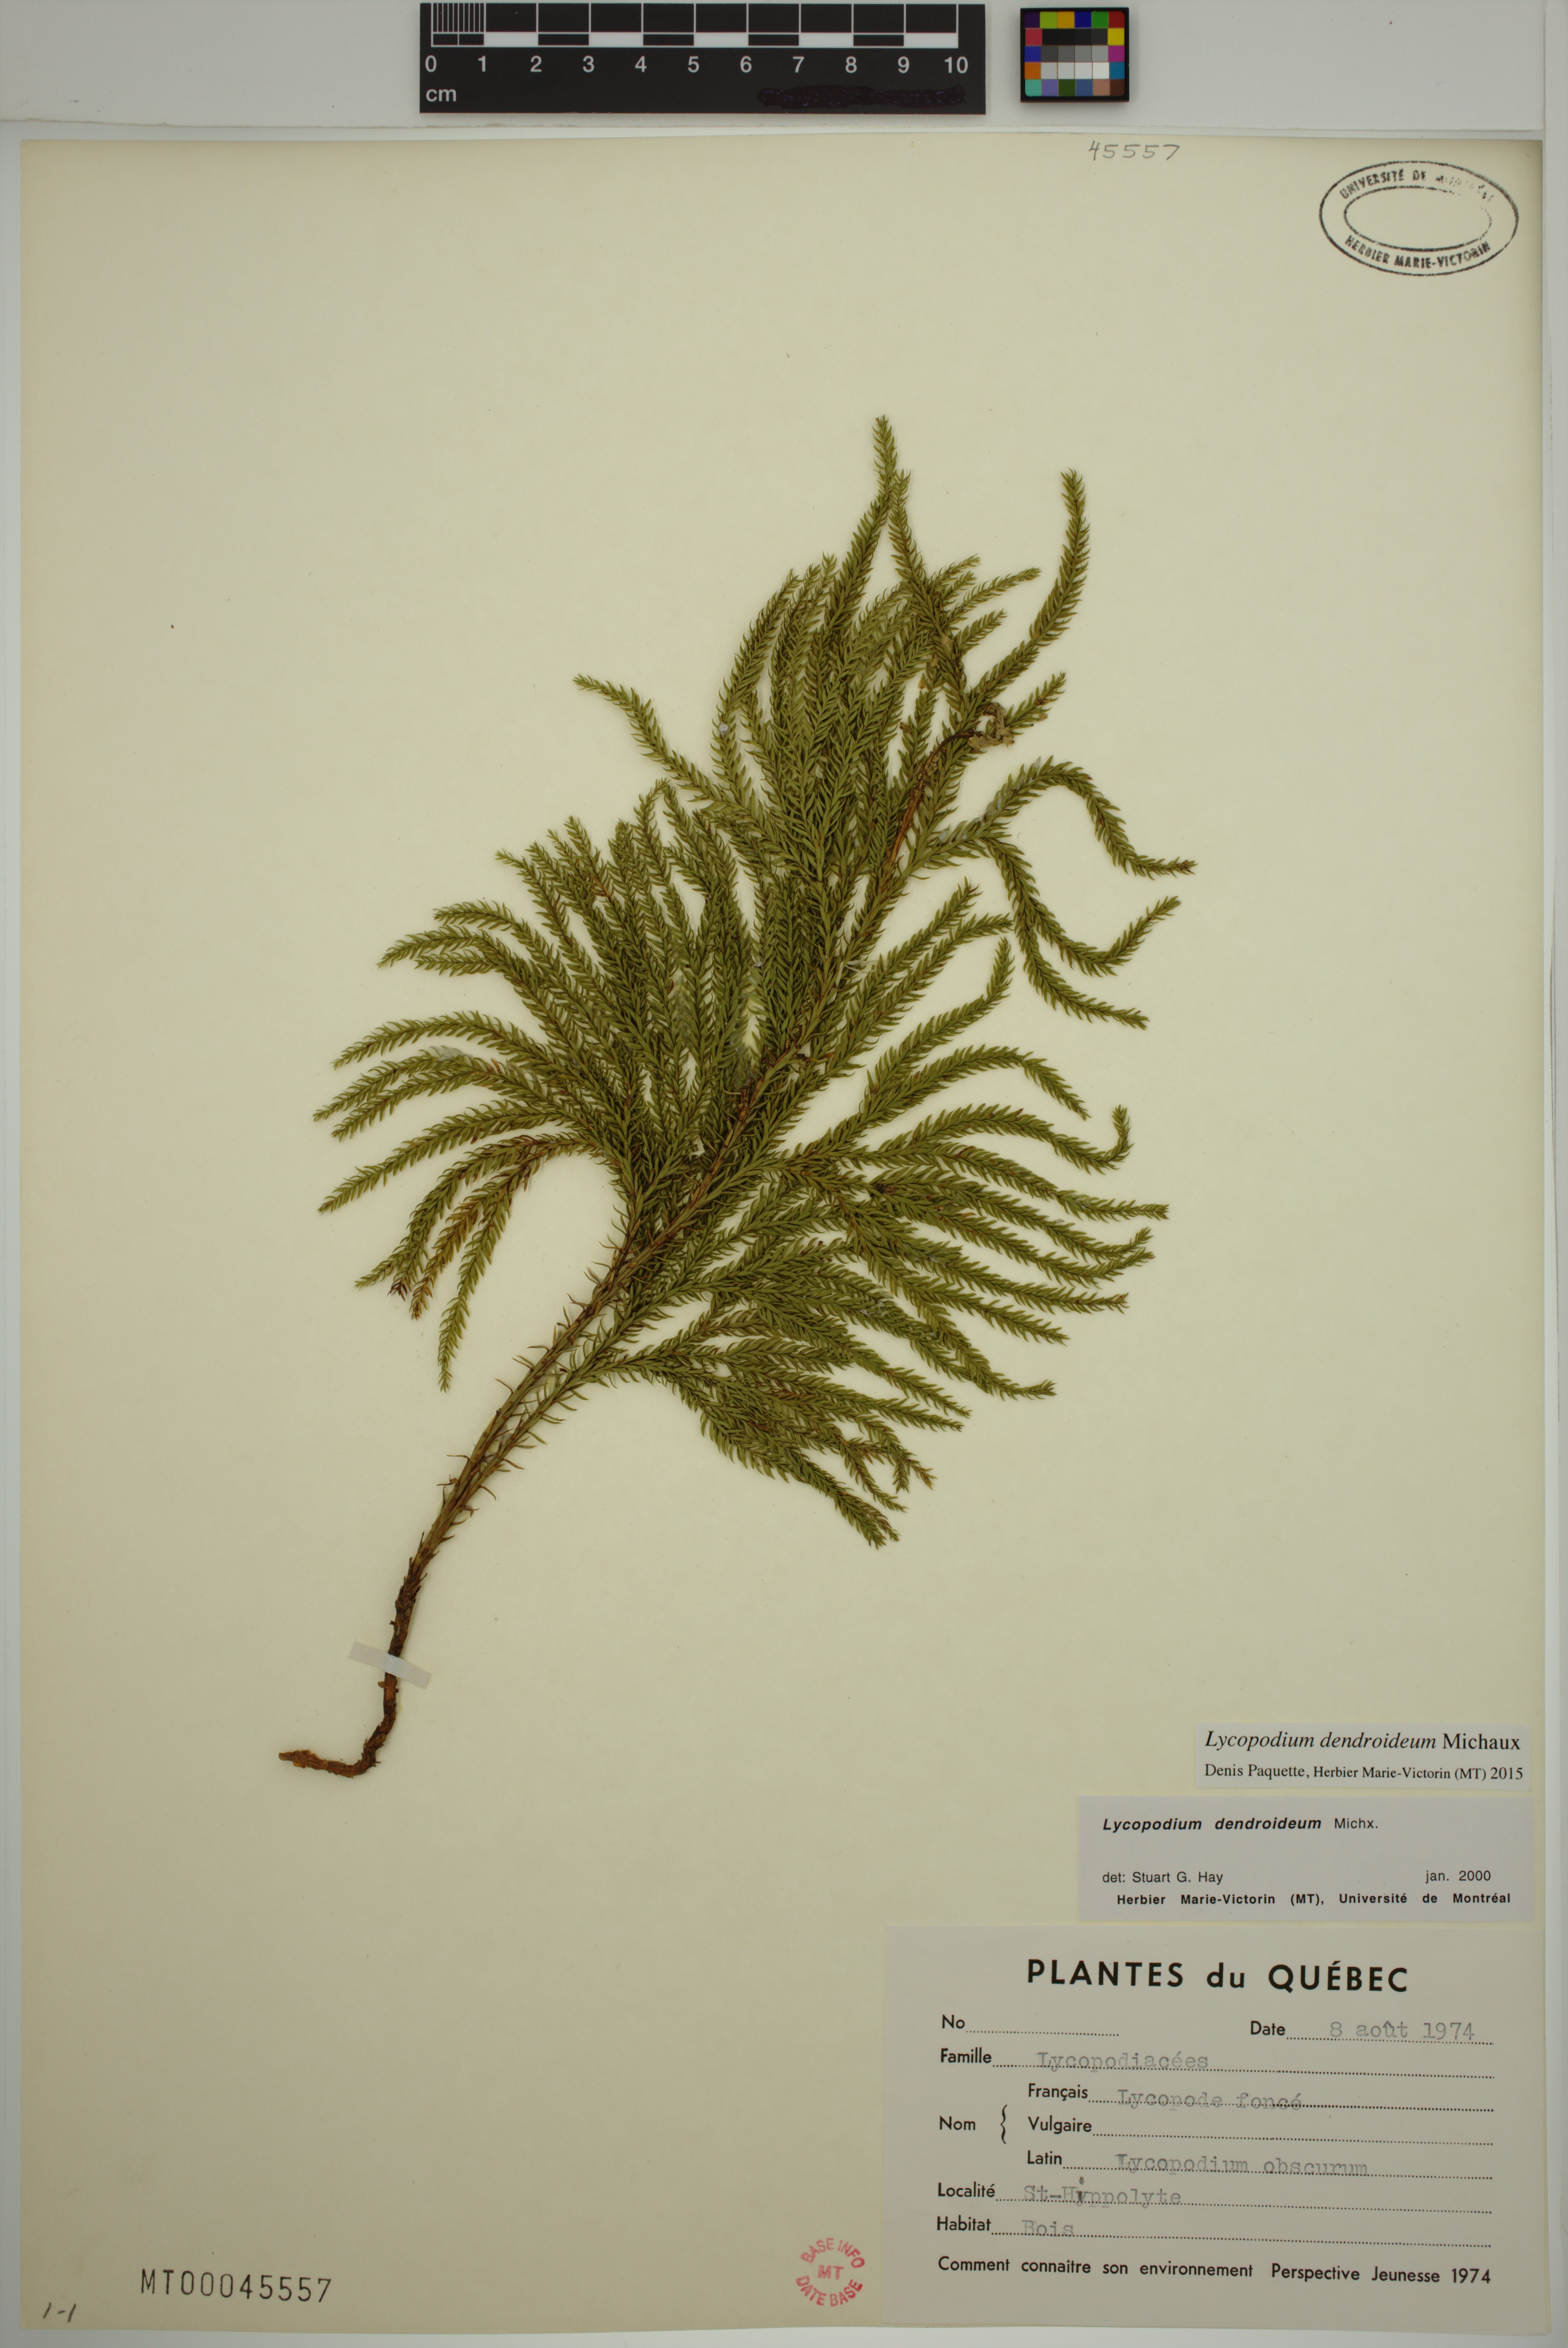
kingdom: Plantae
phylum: Tracheophyta
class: Lycopodiopsida
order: Lycopodiales
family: Lycopodiaceae
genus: Dendrolycopodium
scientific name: Dendrolycopodium dendroideum
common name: Northern tree-clubmoss
